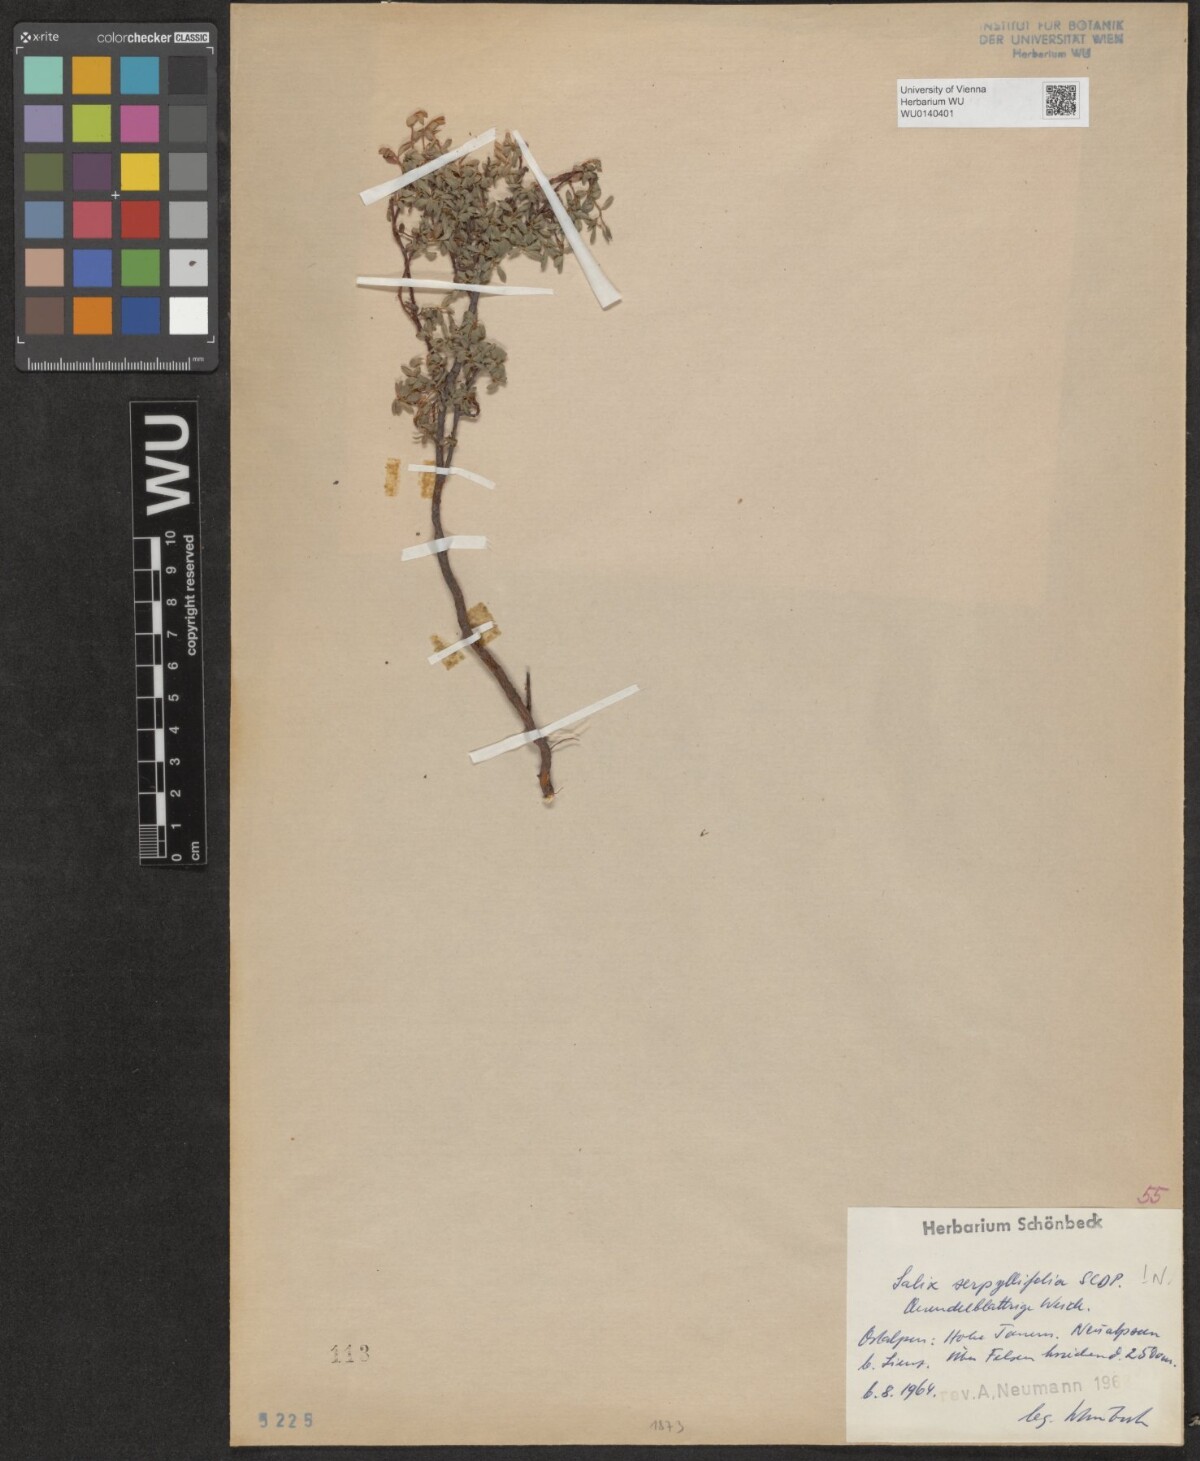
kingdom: Plantae
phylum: Tracheophyta
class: Magnoliopsida
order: Malpighiales
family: Salicaceae
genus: Salix
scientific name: Salix serpillifolia
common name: Thyme-leaf willow
